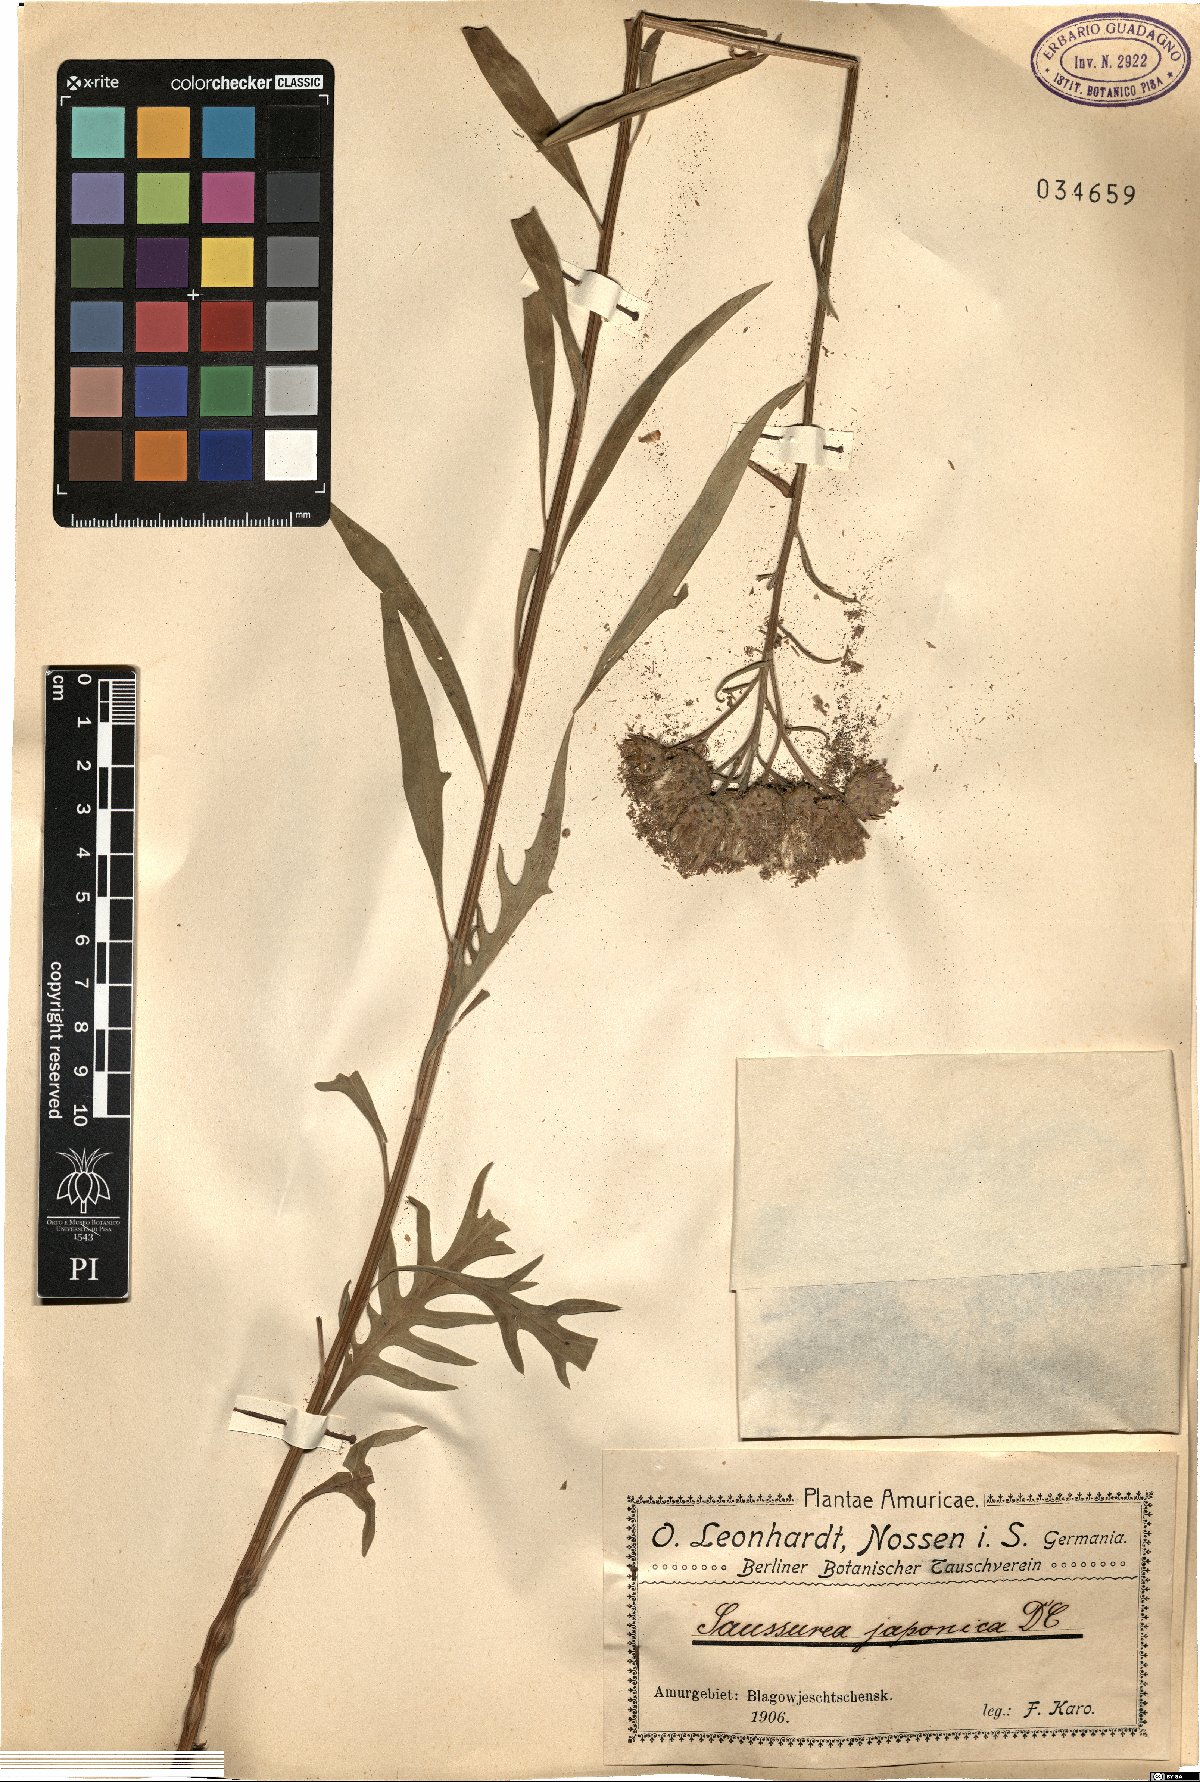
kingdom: Plantae
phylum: Tracheophyta
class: Magnoliopsida
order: Asterales
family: Asteraceae
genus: Saussurea
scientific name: Saussurea japonica
